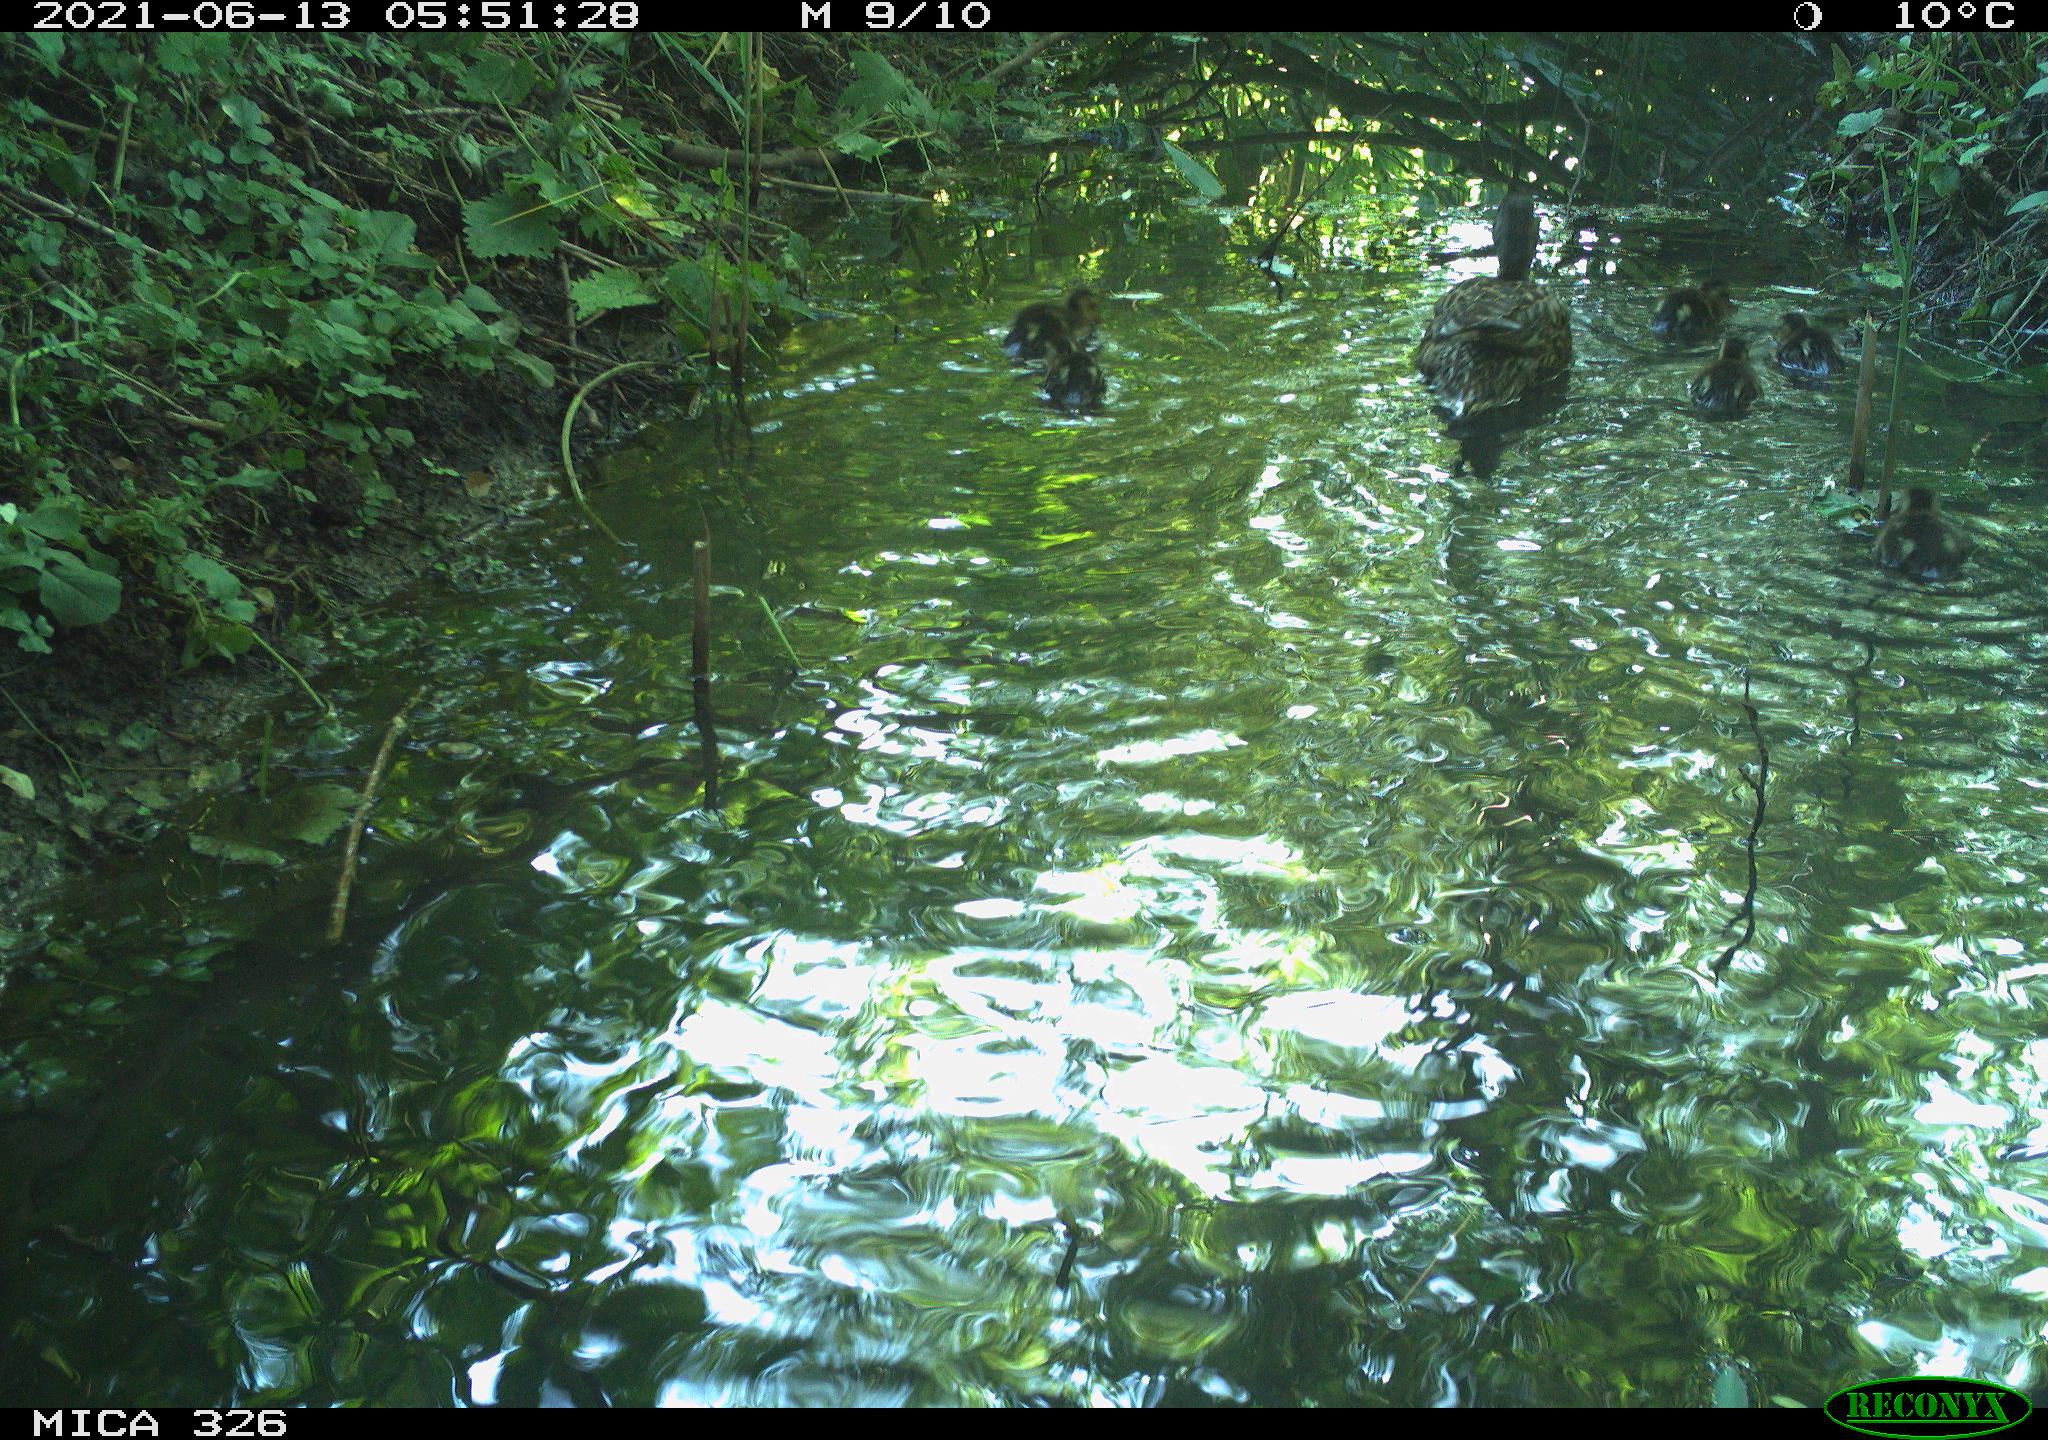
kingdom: Animalia
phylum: Chordata
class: Aves
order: Anseriformes
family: Anatidae
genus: Anas
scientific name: Anas platyrhynchos
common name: Mallard
